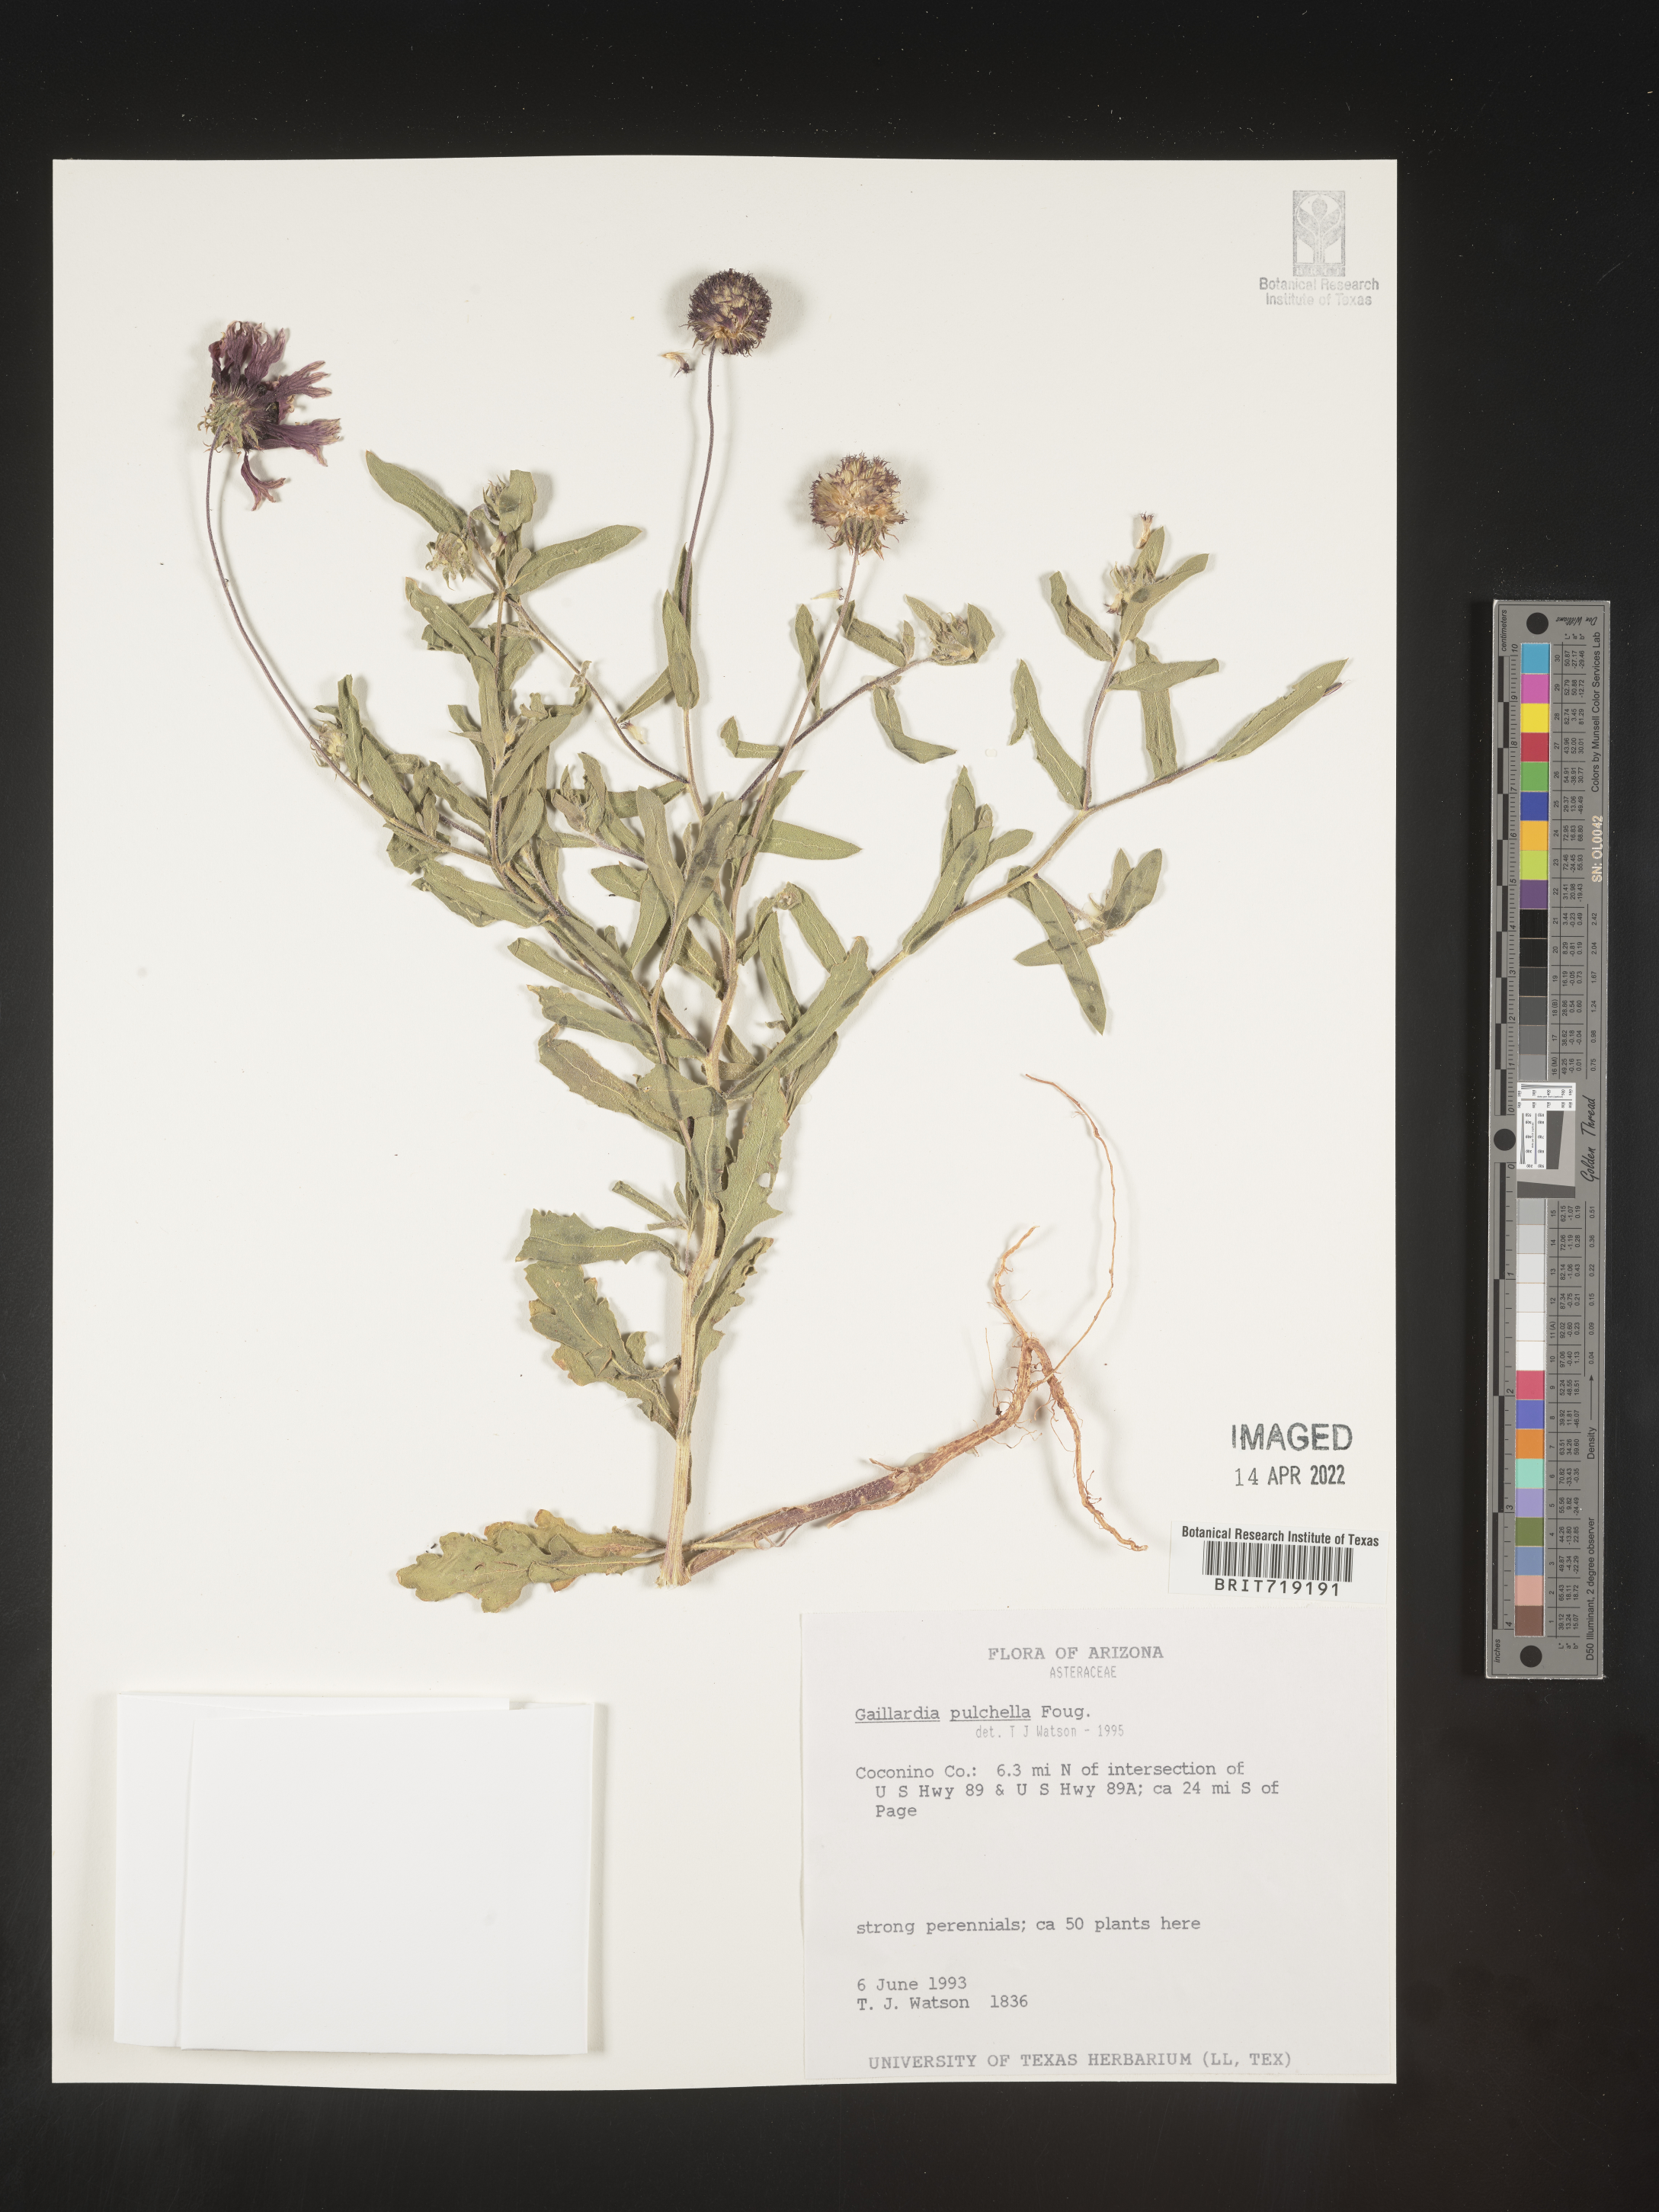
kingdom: Plantae
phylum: Tracheophyta
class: Magnoliopsida
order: Asterales
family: Asteraceae
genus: Gaillardia
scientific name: Gaillardia pulchella
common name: Firewheel
